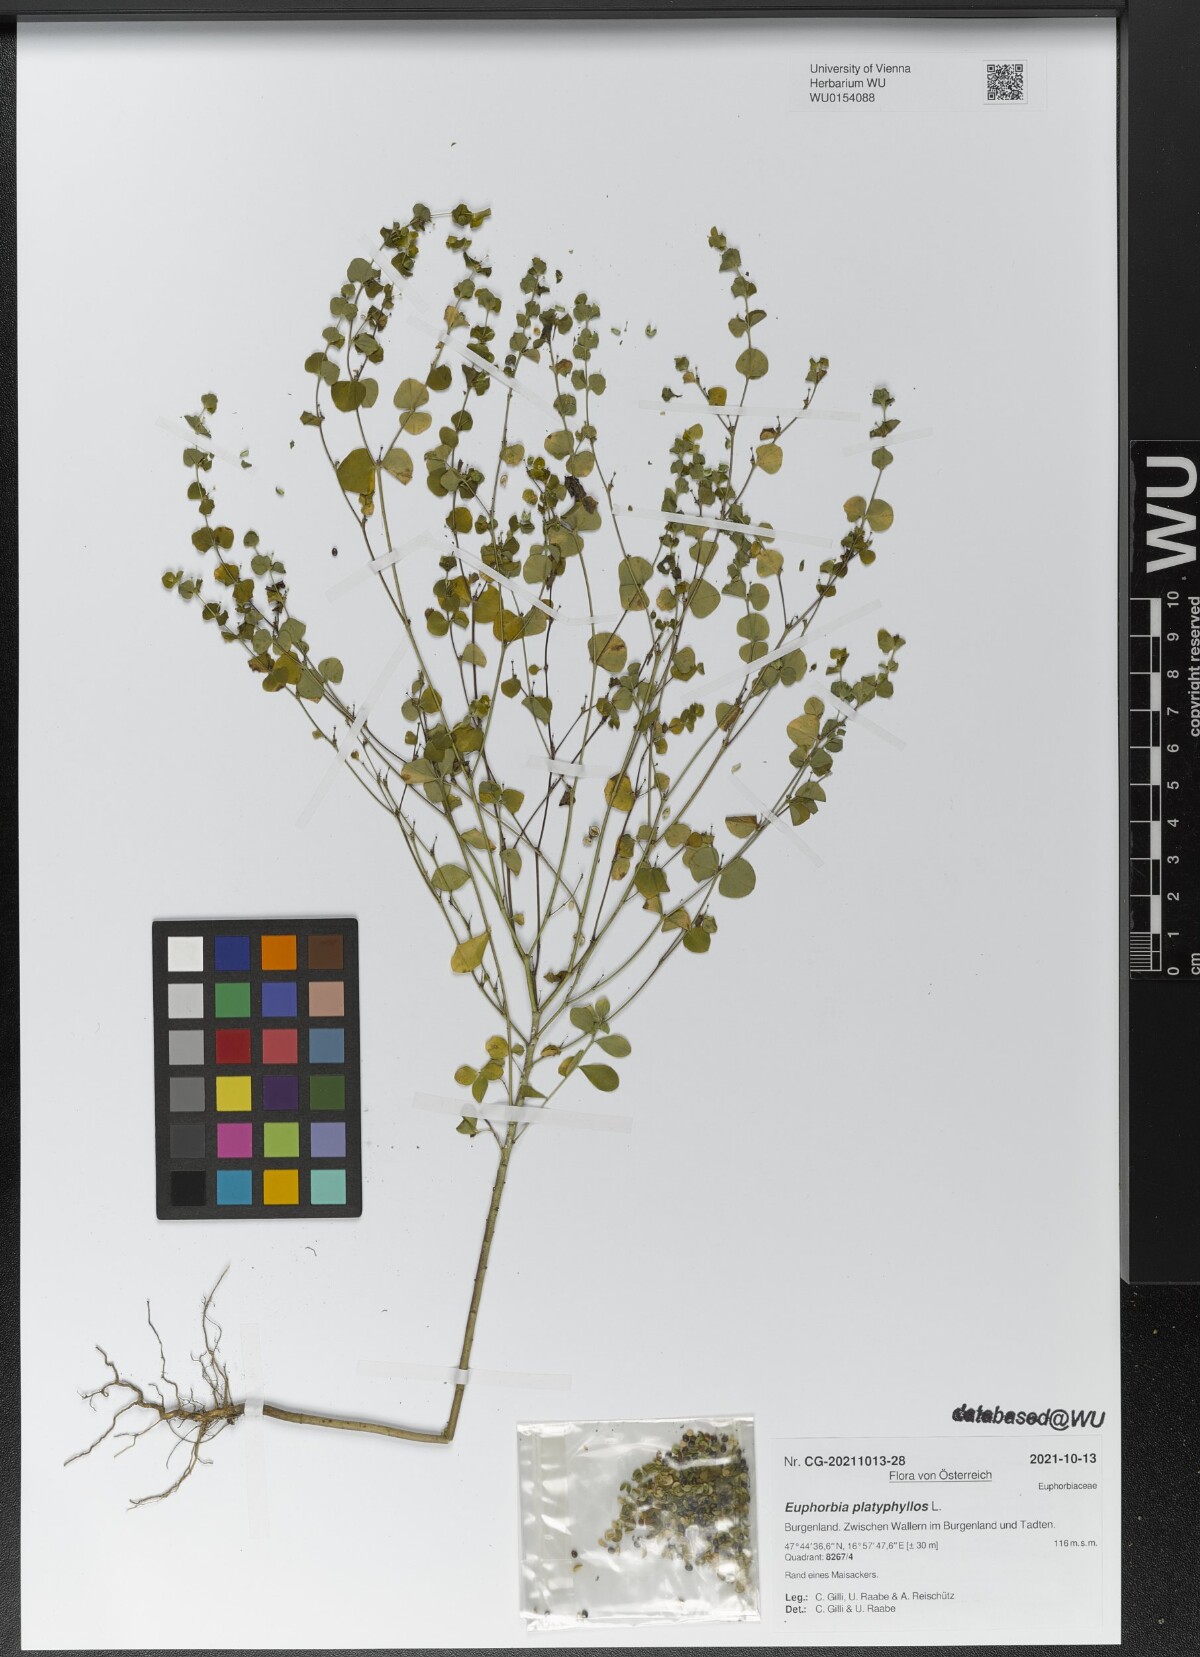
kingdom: Plantae
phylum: Tracheophyta
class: Magnoliopsida
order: Malpighiales
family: Euphorbiaceae
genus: Euphorbia
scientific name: Euphorbia platyphyllos
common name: Broad-leaved spurge
